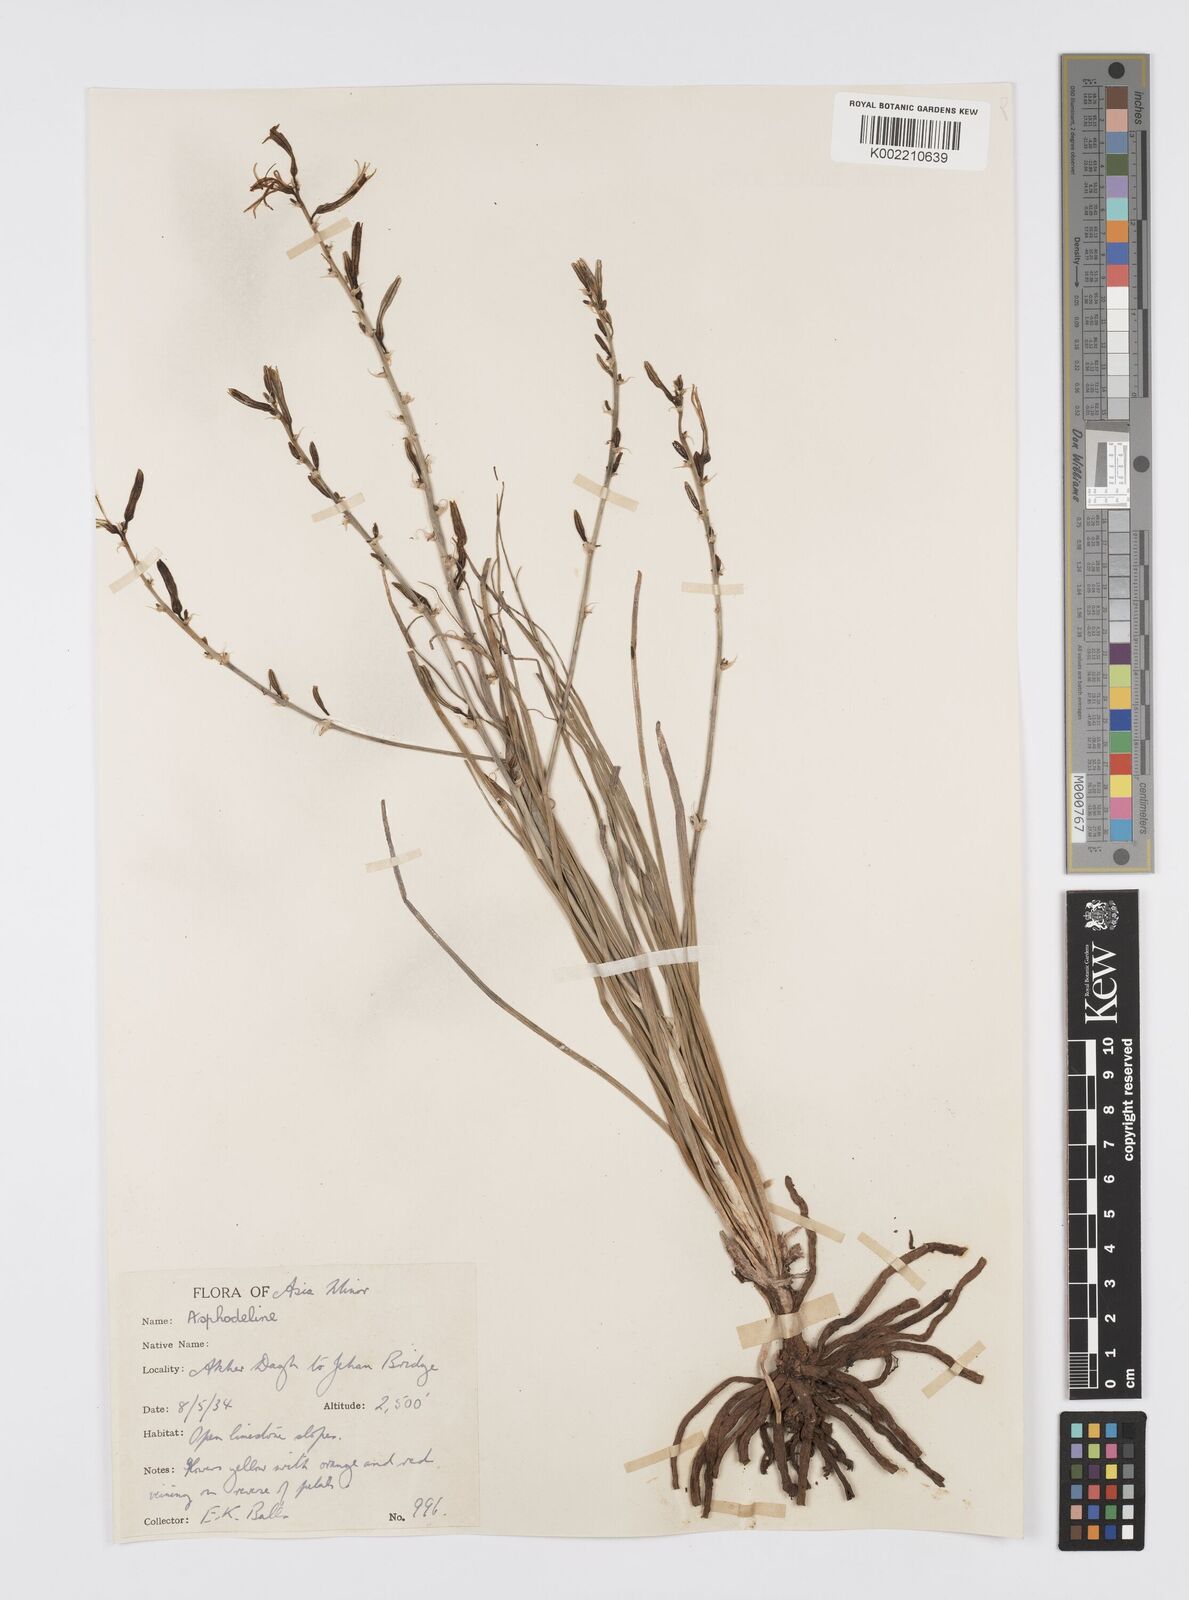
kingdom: Plantae
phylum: Tracheophyta
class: Liliopsida
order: Asparagales
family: Asphodelaceae
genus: Asphodeline
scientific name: Asphodeline brevicaulis
